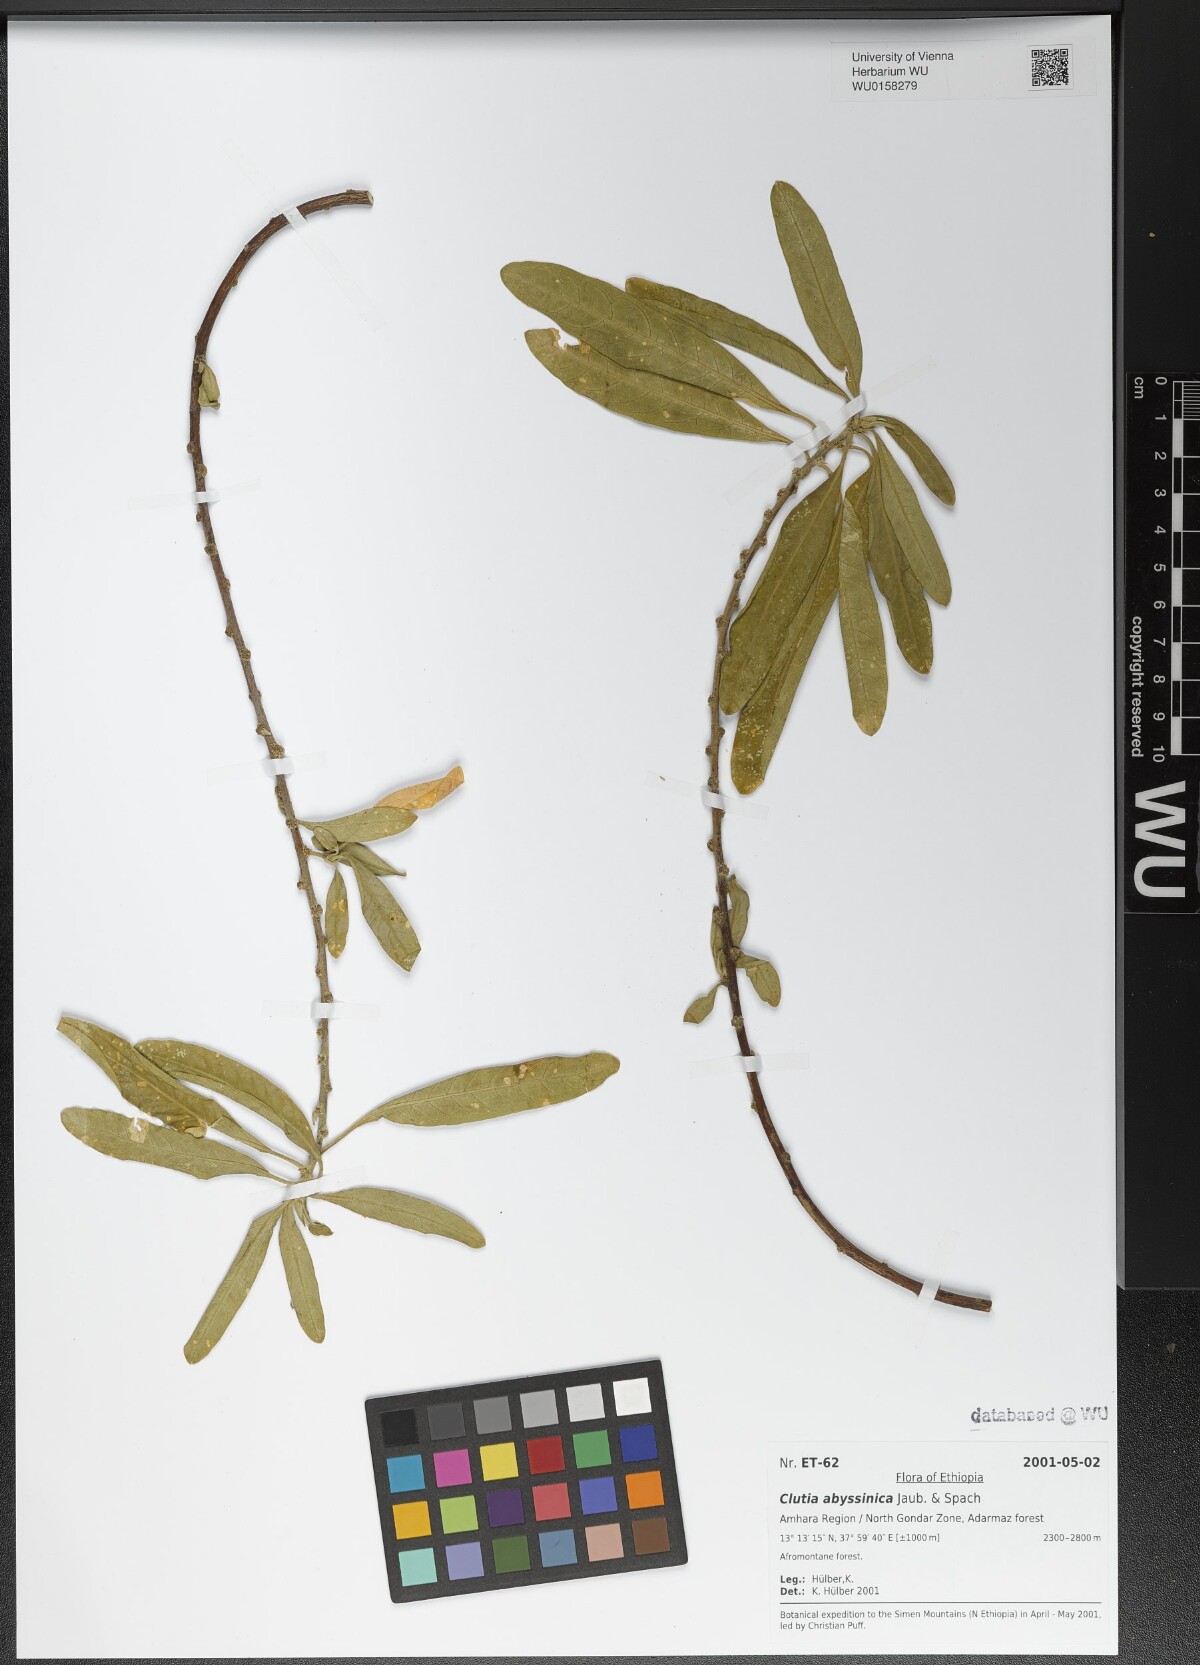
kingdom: Plantae
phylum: Tracheophyta
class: Magnoliopsida
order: Malpighiales
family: Peraceae
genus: Clutia
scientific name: Clutia abyssinica
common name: Large lightning bush
